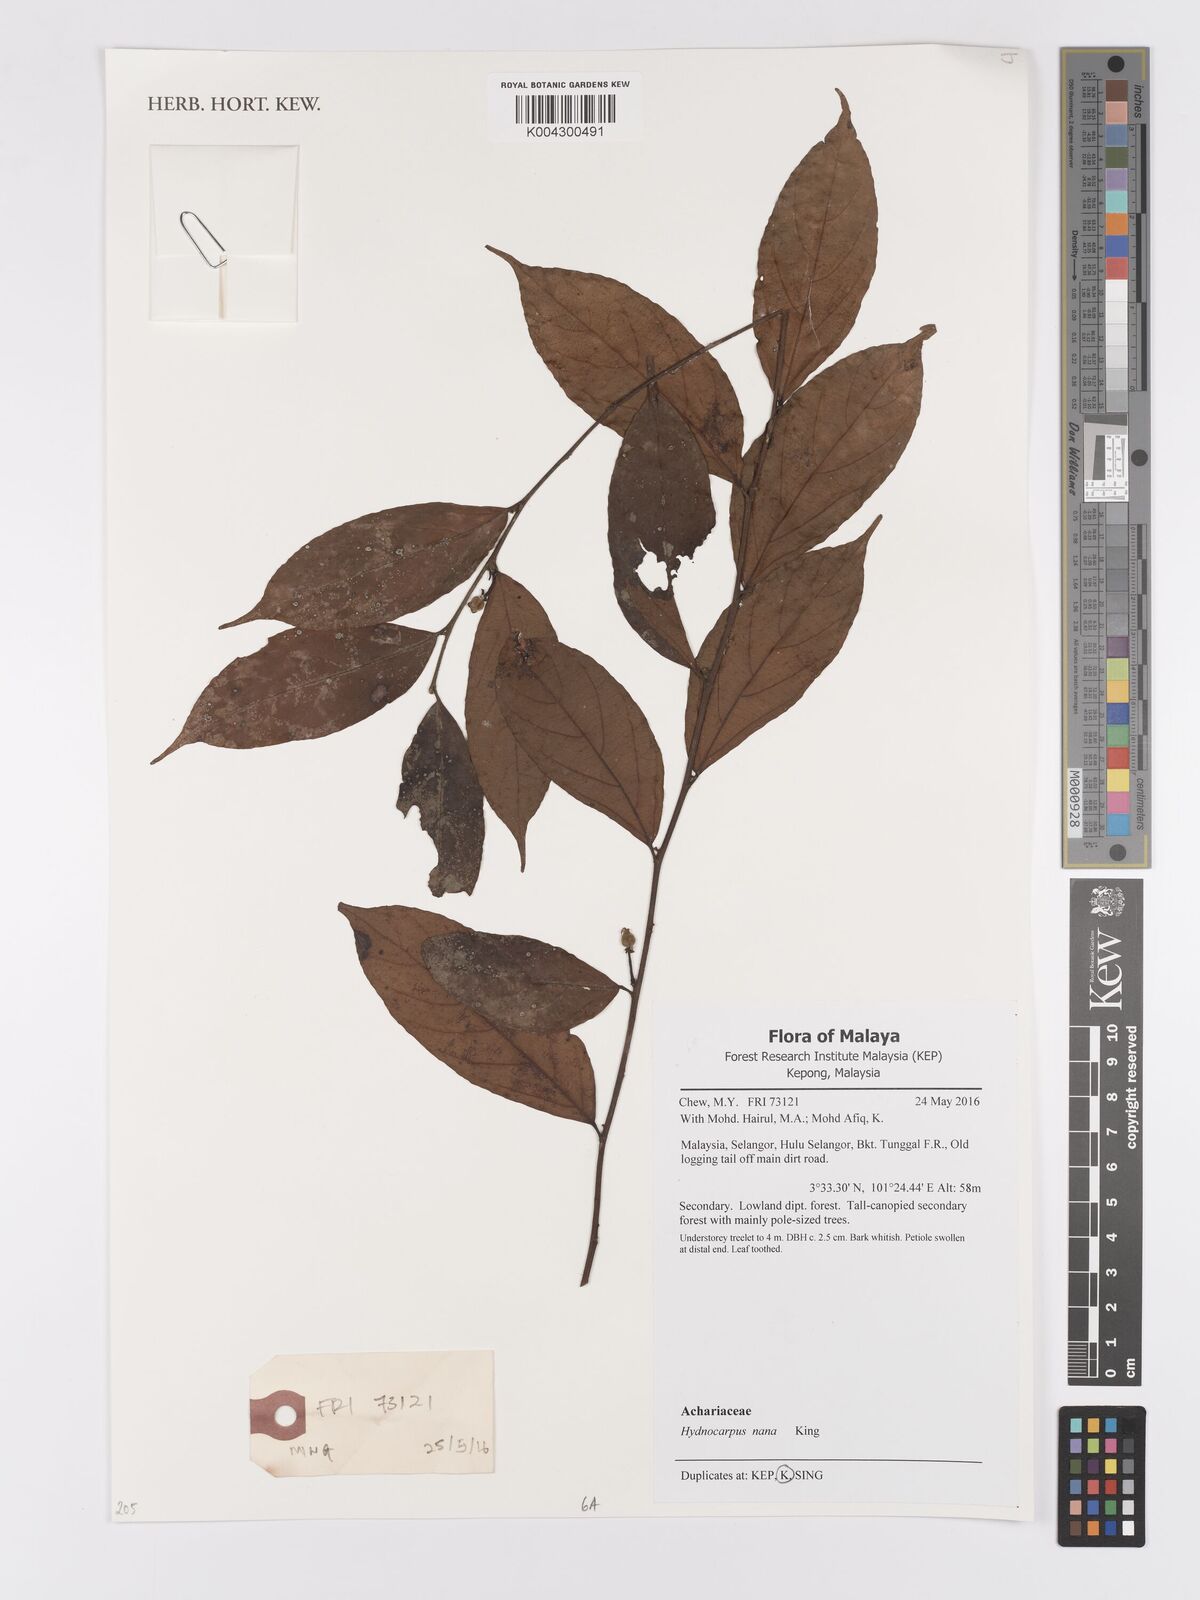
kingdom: Plantae
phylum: Tracheophyta
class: Magnoliopsida
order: Malpighiales
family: Achariaceae
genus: Hydnocarpus
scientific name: Hydnocarpus nanus
